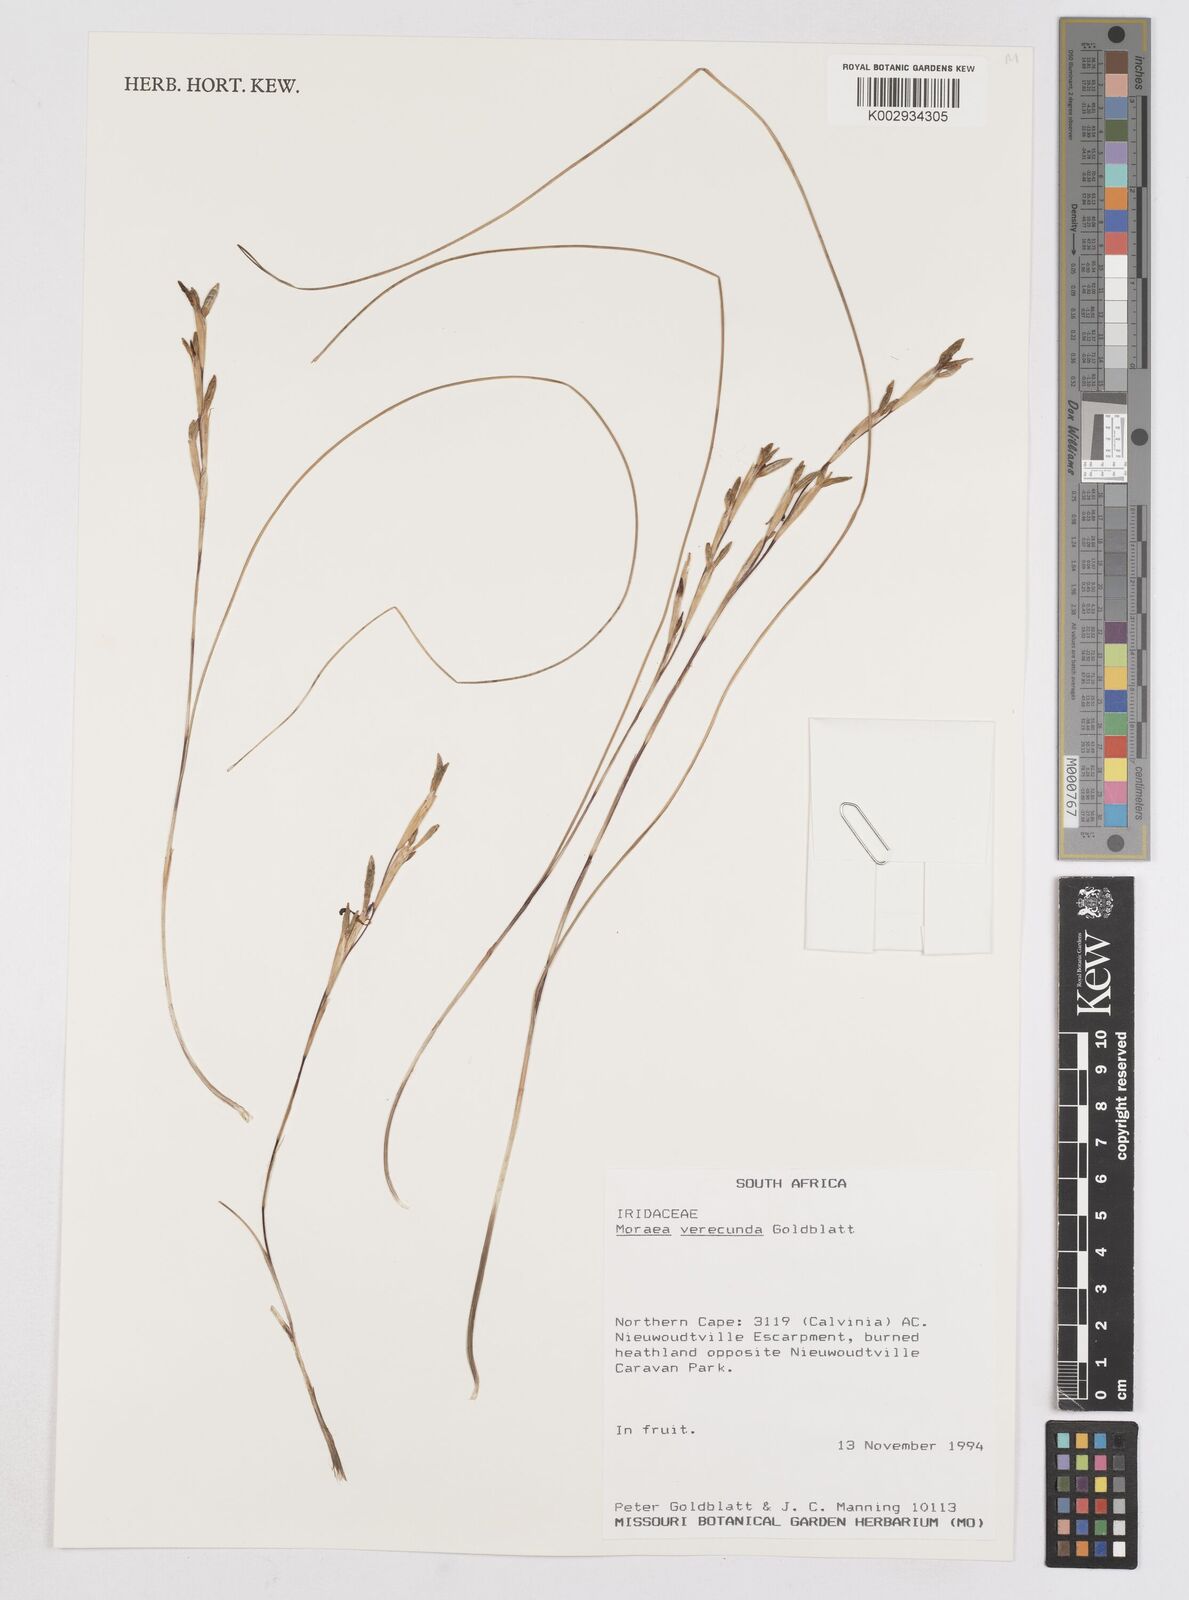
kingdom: Plantae
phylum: Tracheophyta
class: Liliopsida
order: Asparagales
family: Iridaceae
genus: Moraea
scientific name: Moraea verecunda
